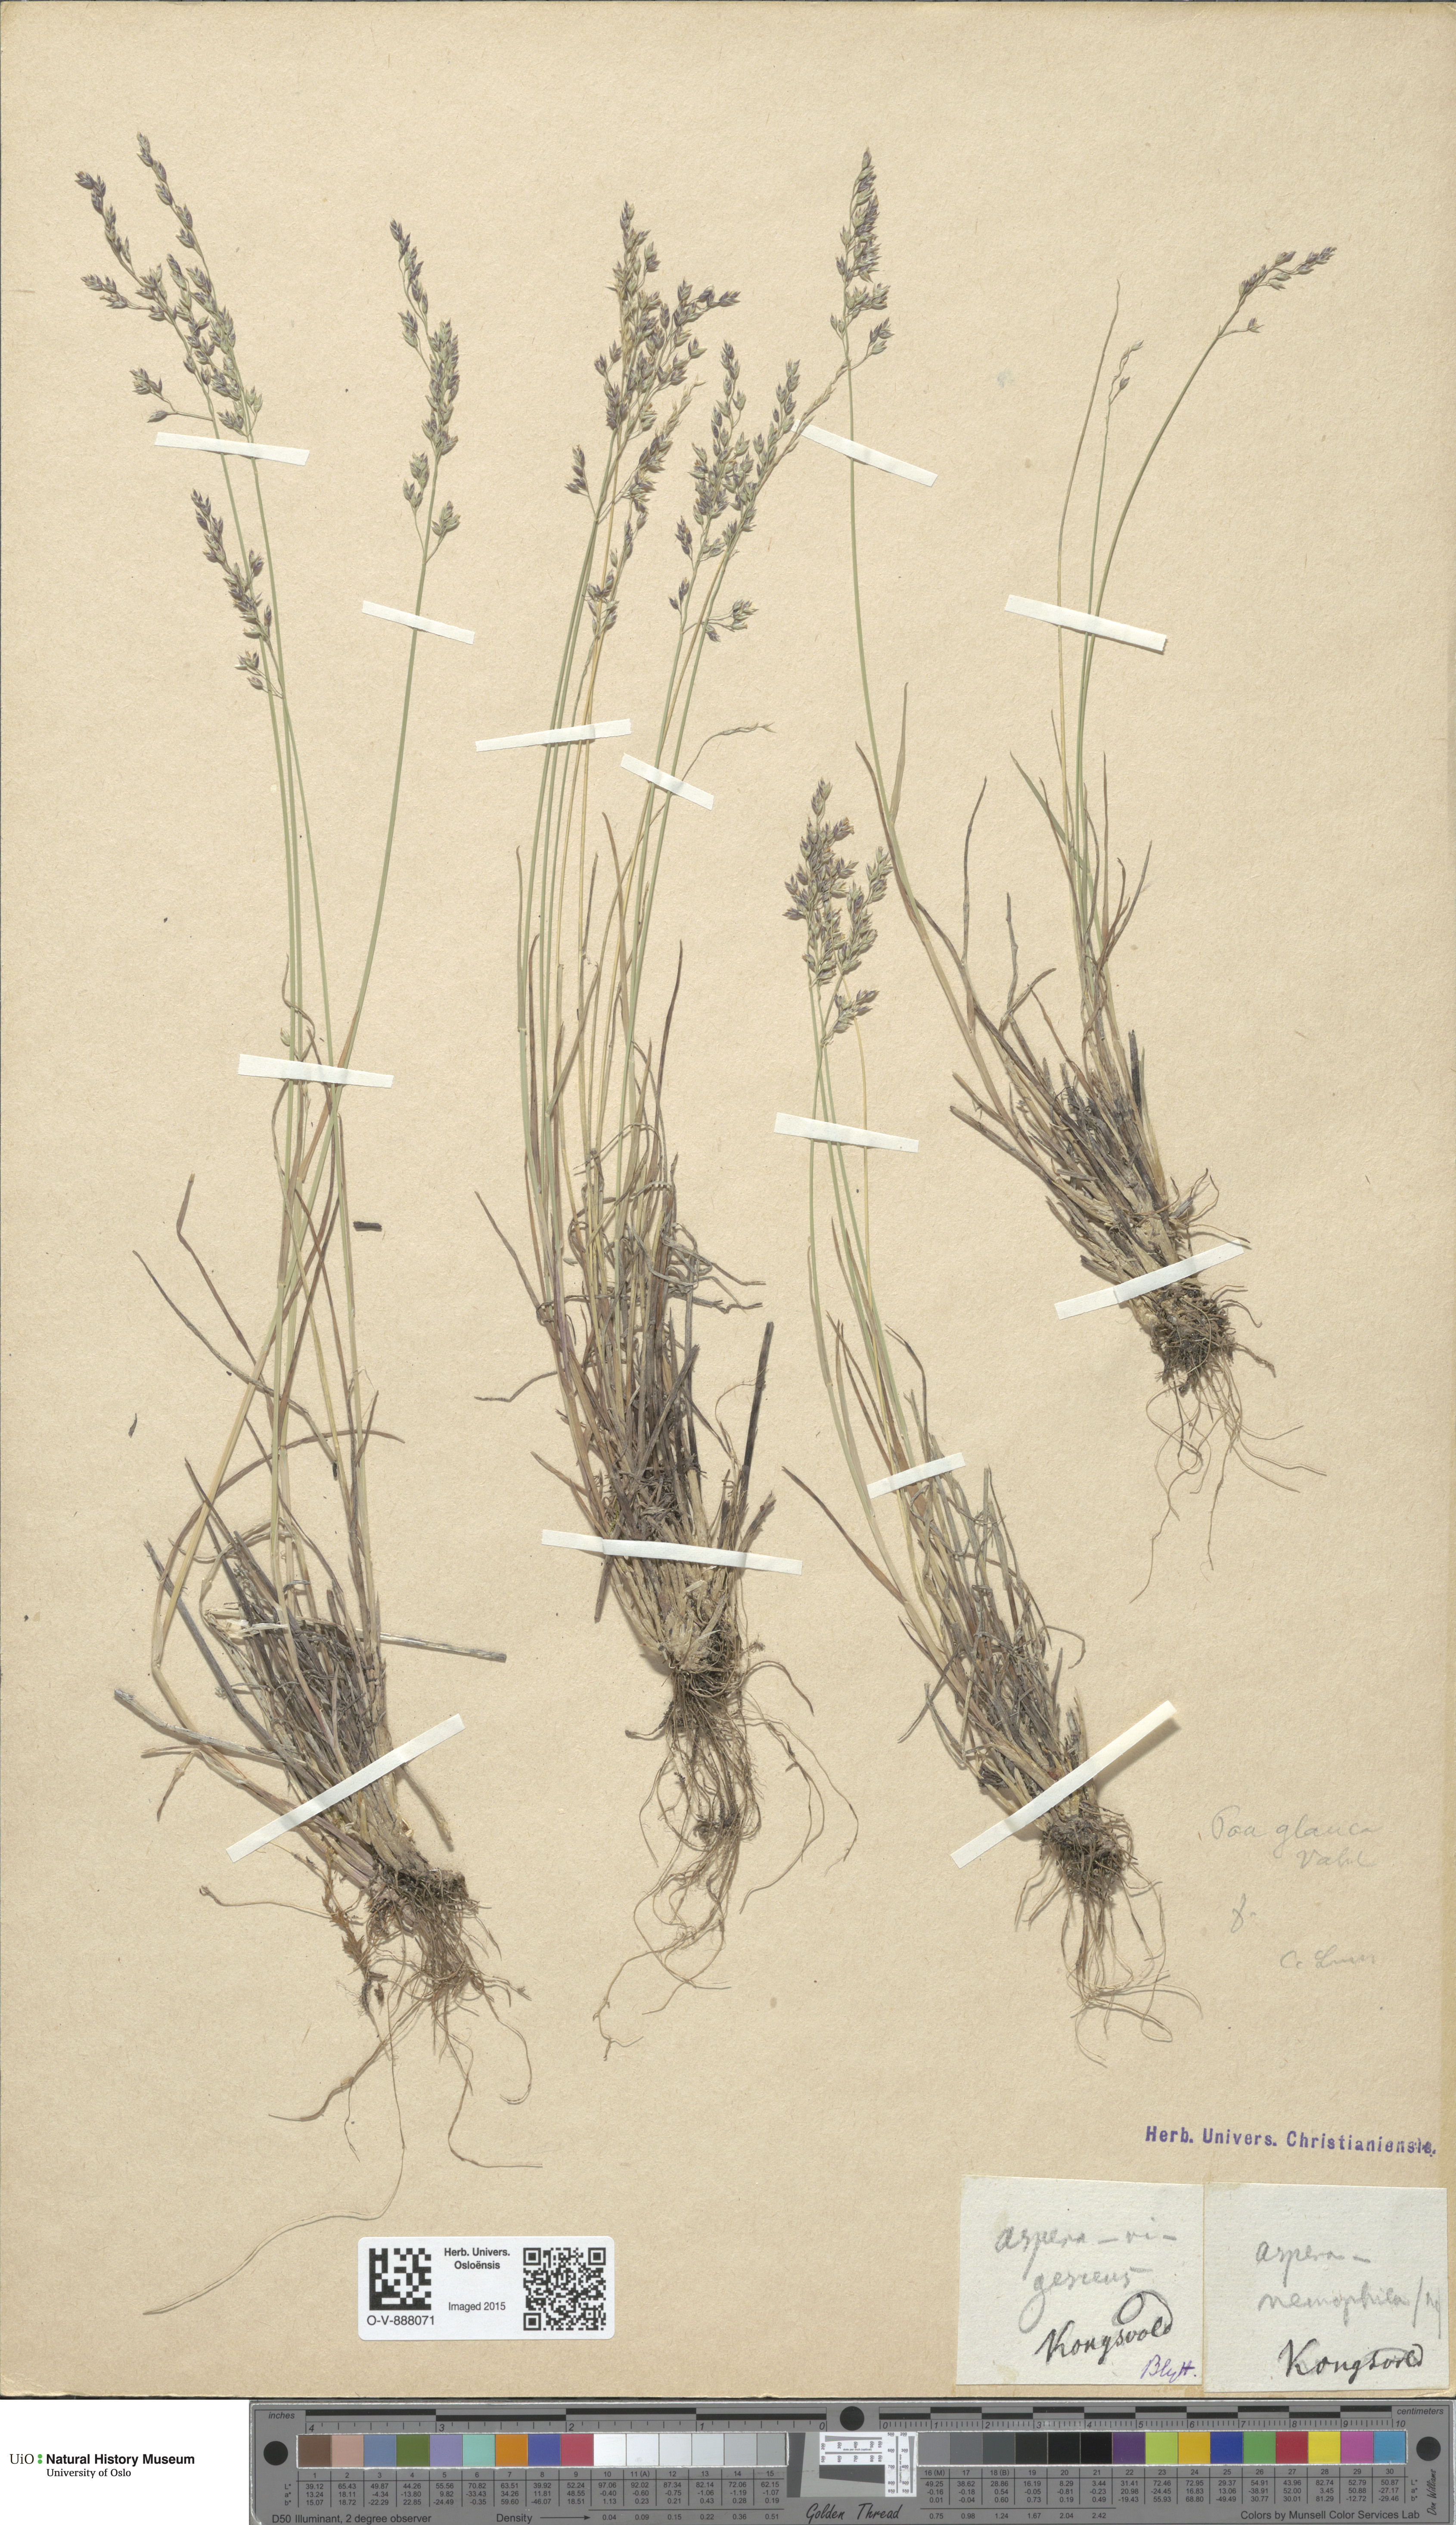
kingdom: Plantae
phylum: Tracheophyta
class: Liliopsida
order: Poales
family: Poaceae
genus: Poa
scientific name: Poa glauca
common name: Glaucous bluegrass
